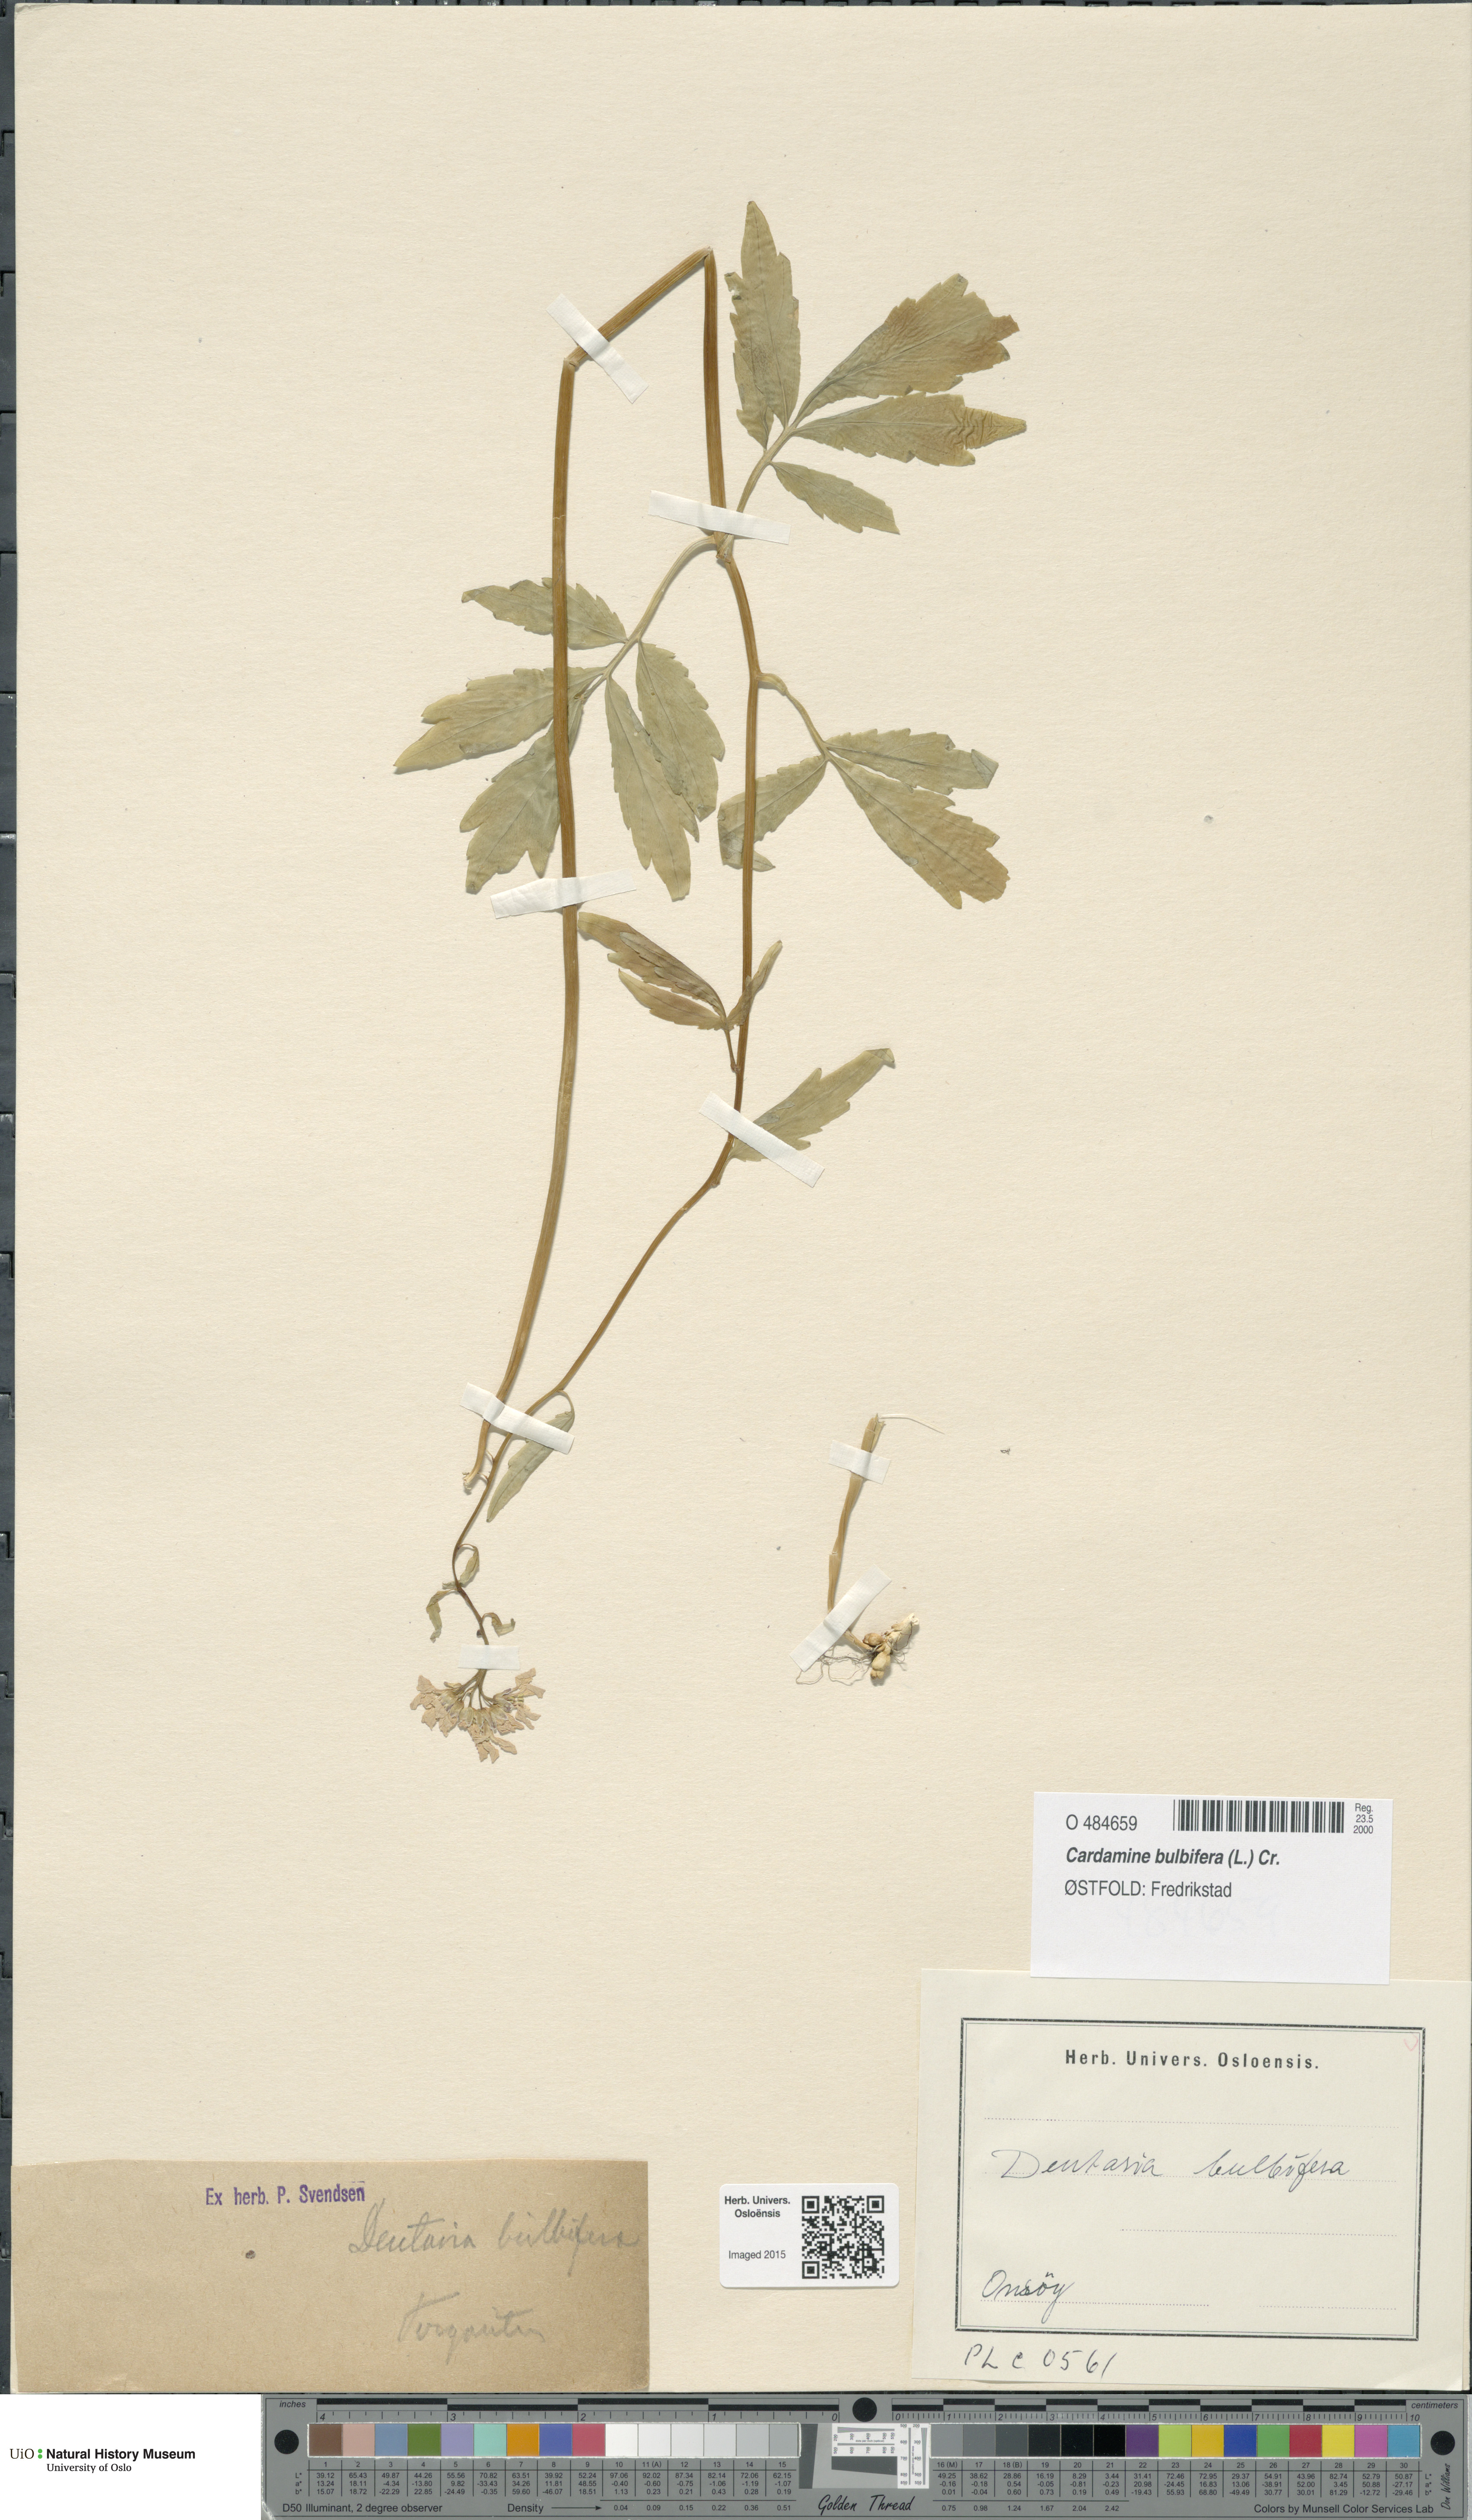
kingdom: Plantae
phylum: Tracheophyta
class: Magnoliopsida
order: Brassicales
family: Brassicaceae
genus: Cardamine
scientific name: Cardamine bulbifera
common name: Coralroot bittercress
